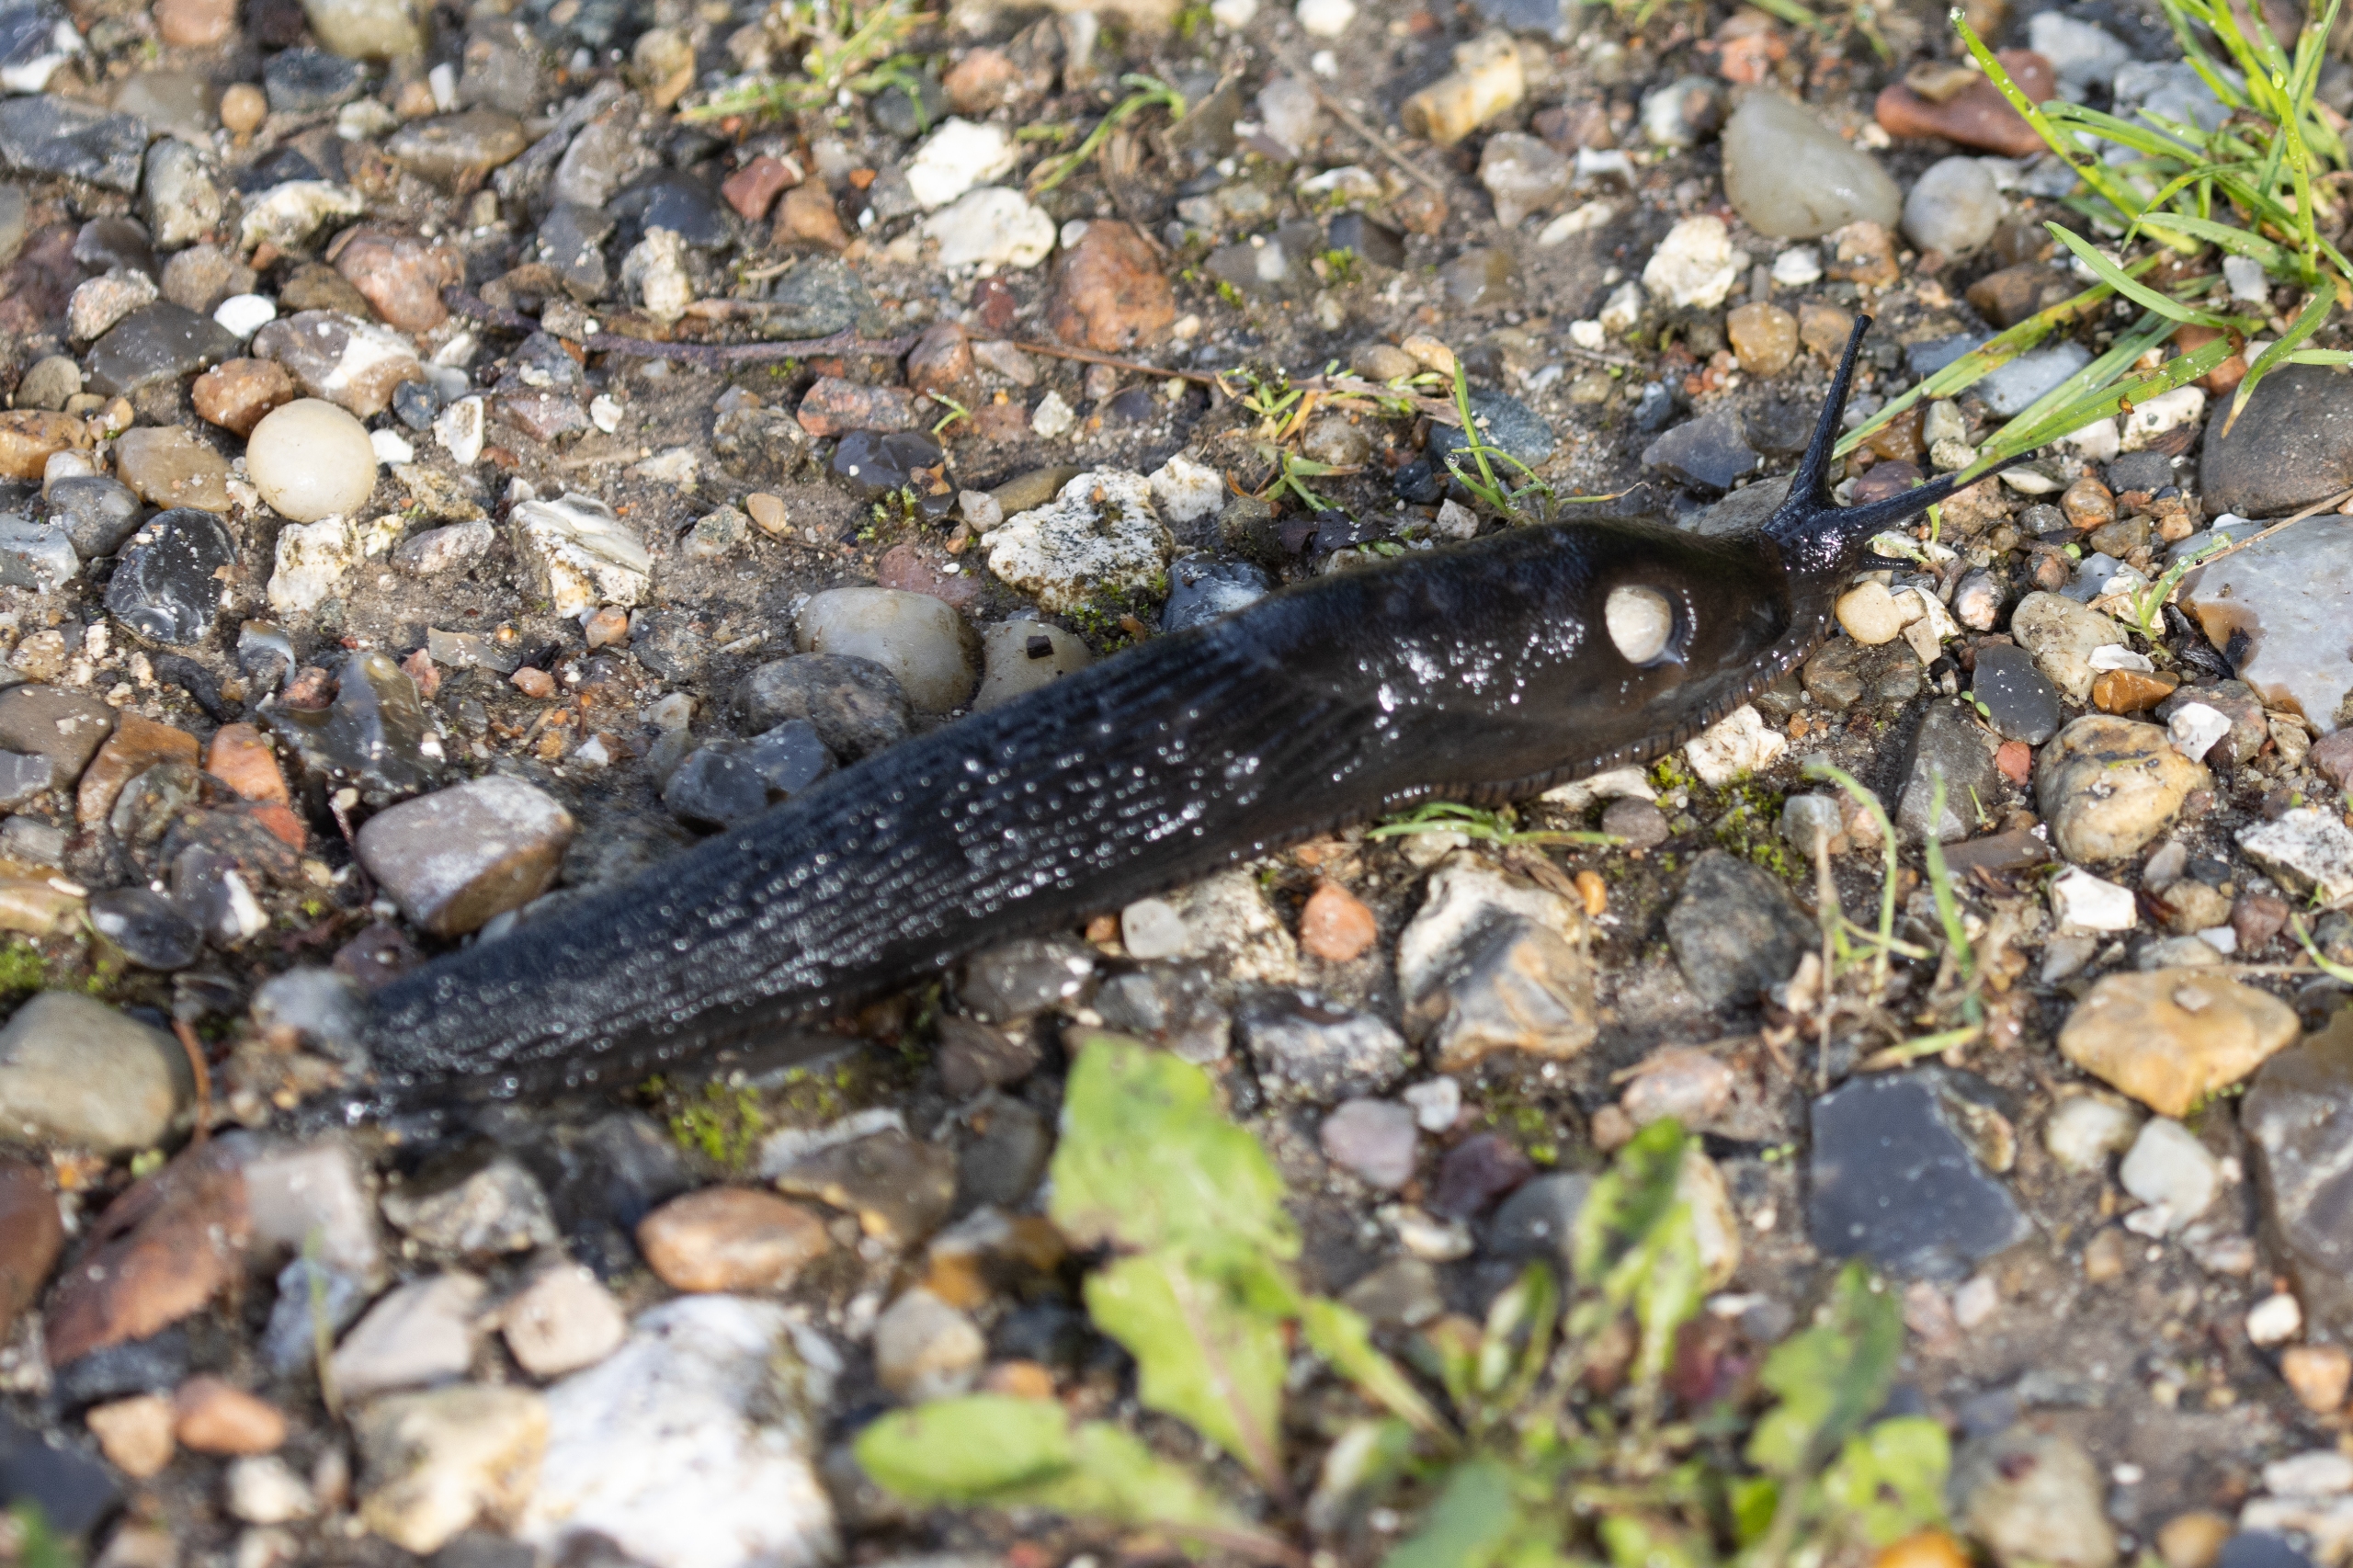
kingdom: Animalia
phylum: Mollusca
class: Gastropoda
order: Stylommatophora
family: Arionidae
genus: Arion
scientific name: Arion ater
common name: Sort skovsnegl
